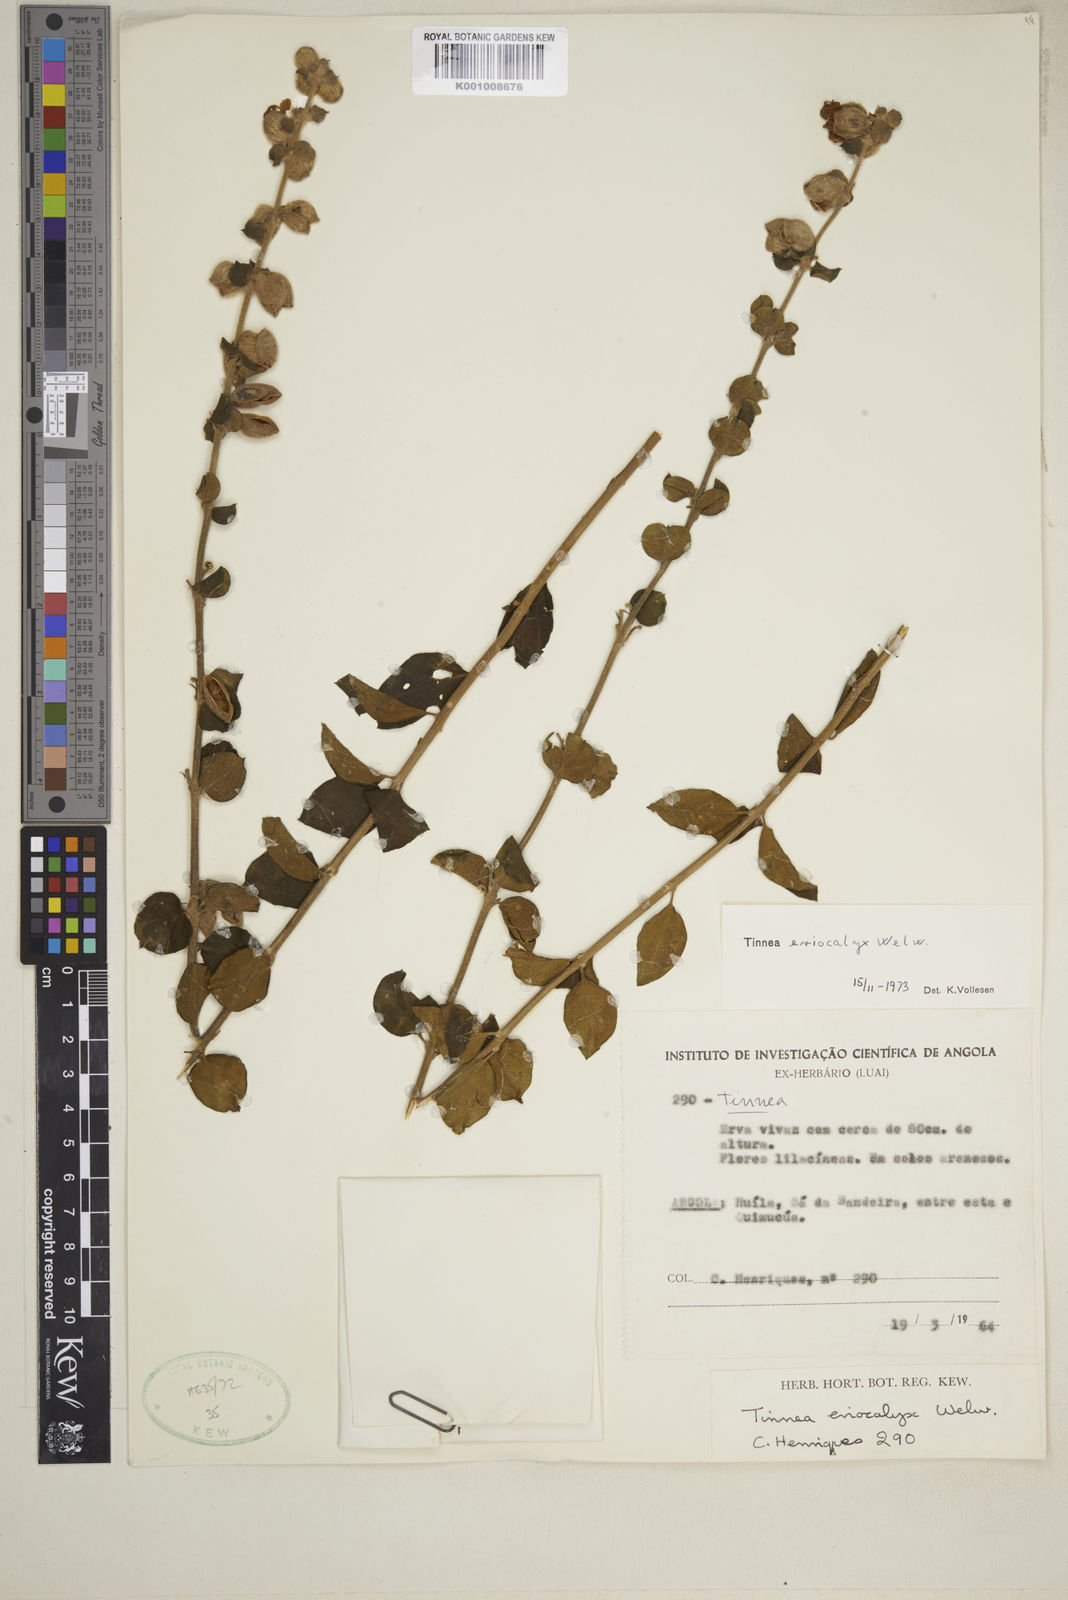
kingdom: Plantae
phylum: Tracheophyta
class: Magnoliopsida
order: Lamiales
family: Lamiaceae
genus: Tinnea
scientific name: Tinnea eriocalyx
